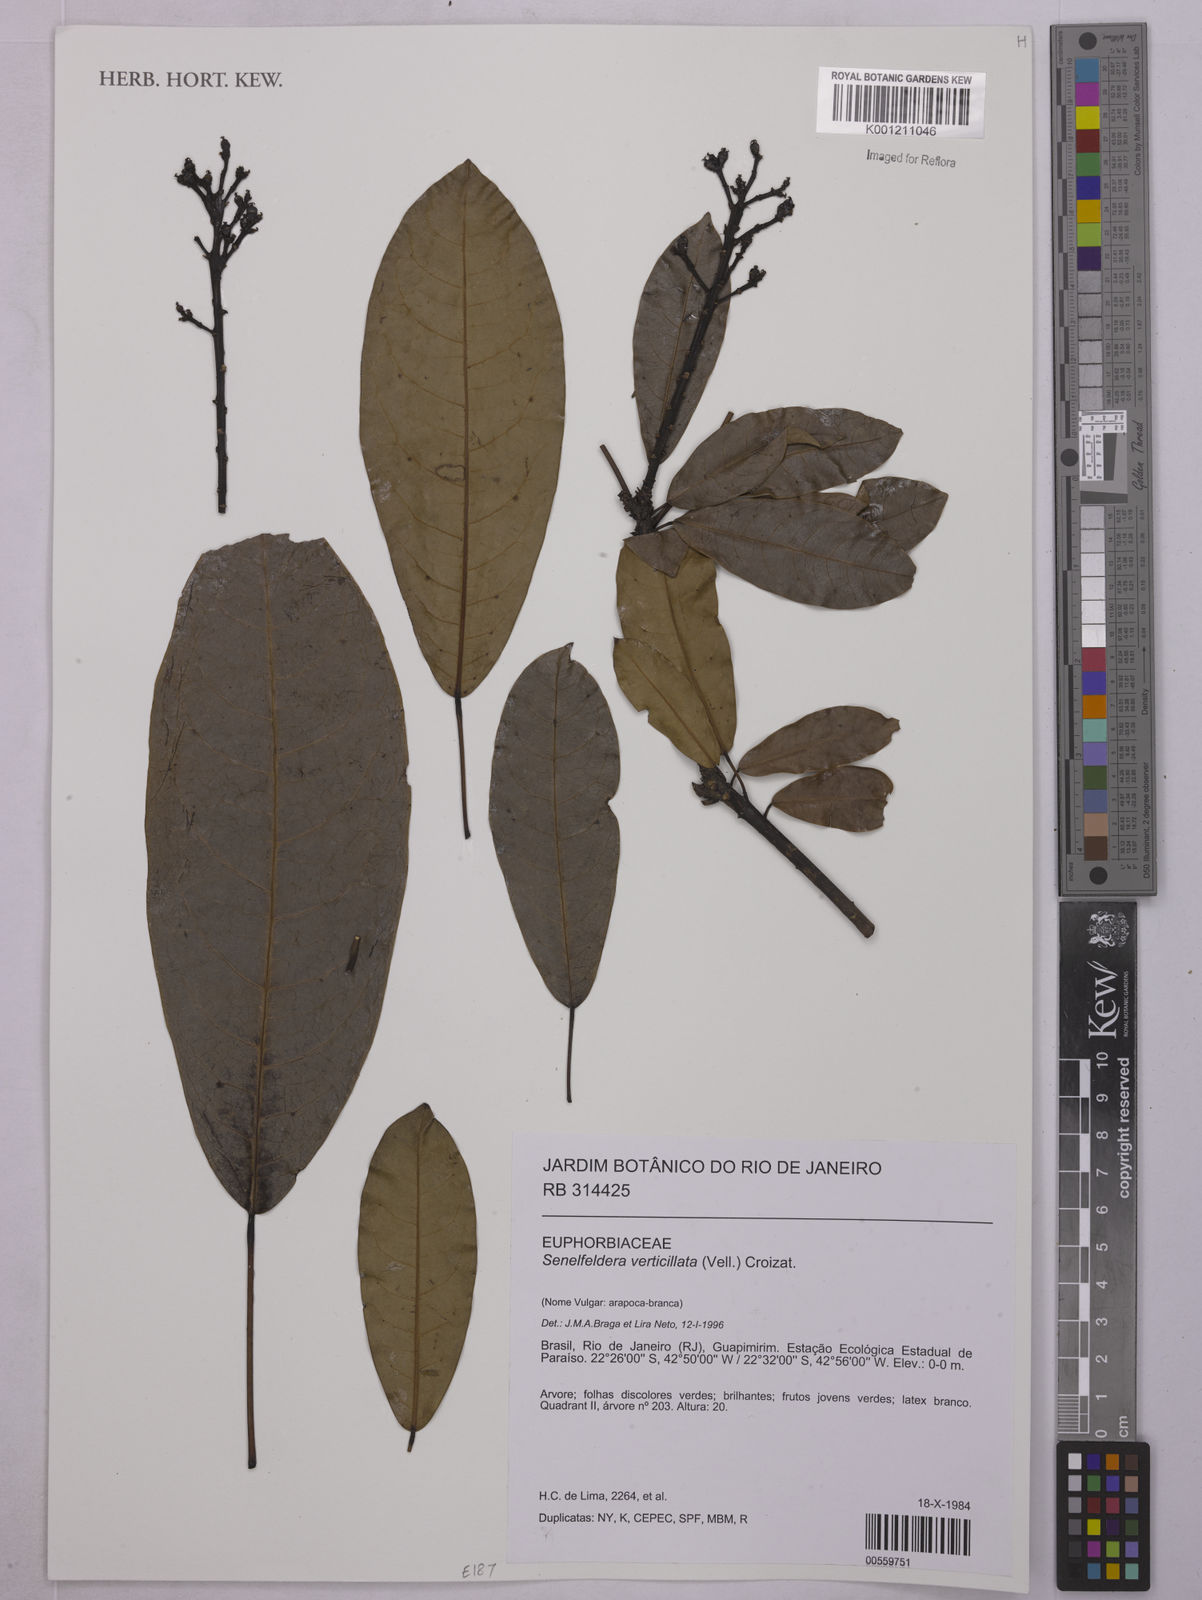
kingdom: Plantae
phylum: Tracheophyta
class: Magnoliopsida
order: Malpighiales
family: Euphorbiaceae
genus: Senefeldera
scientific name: Senefeldera verticillata
